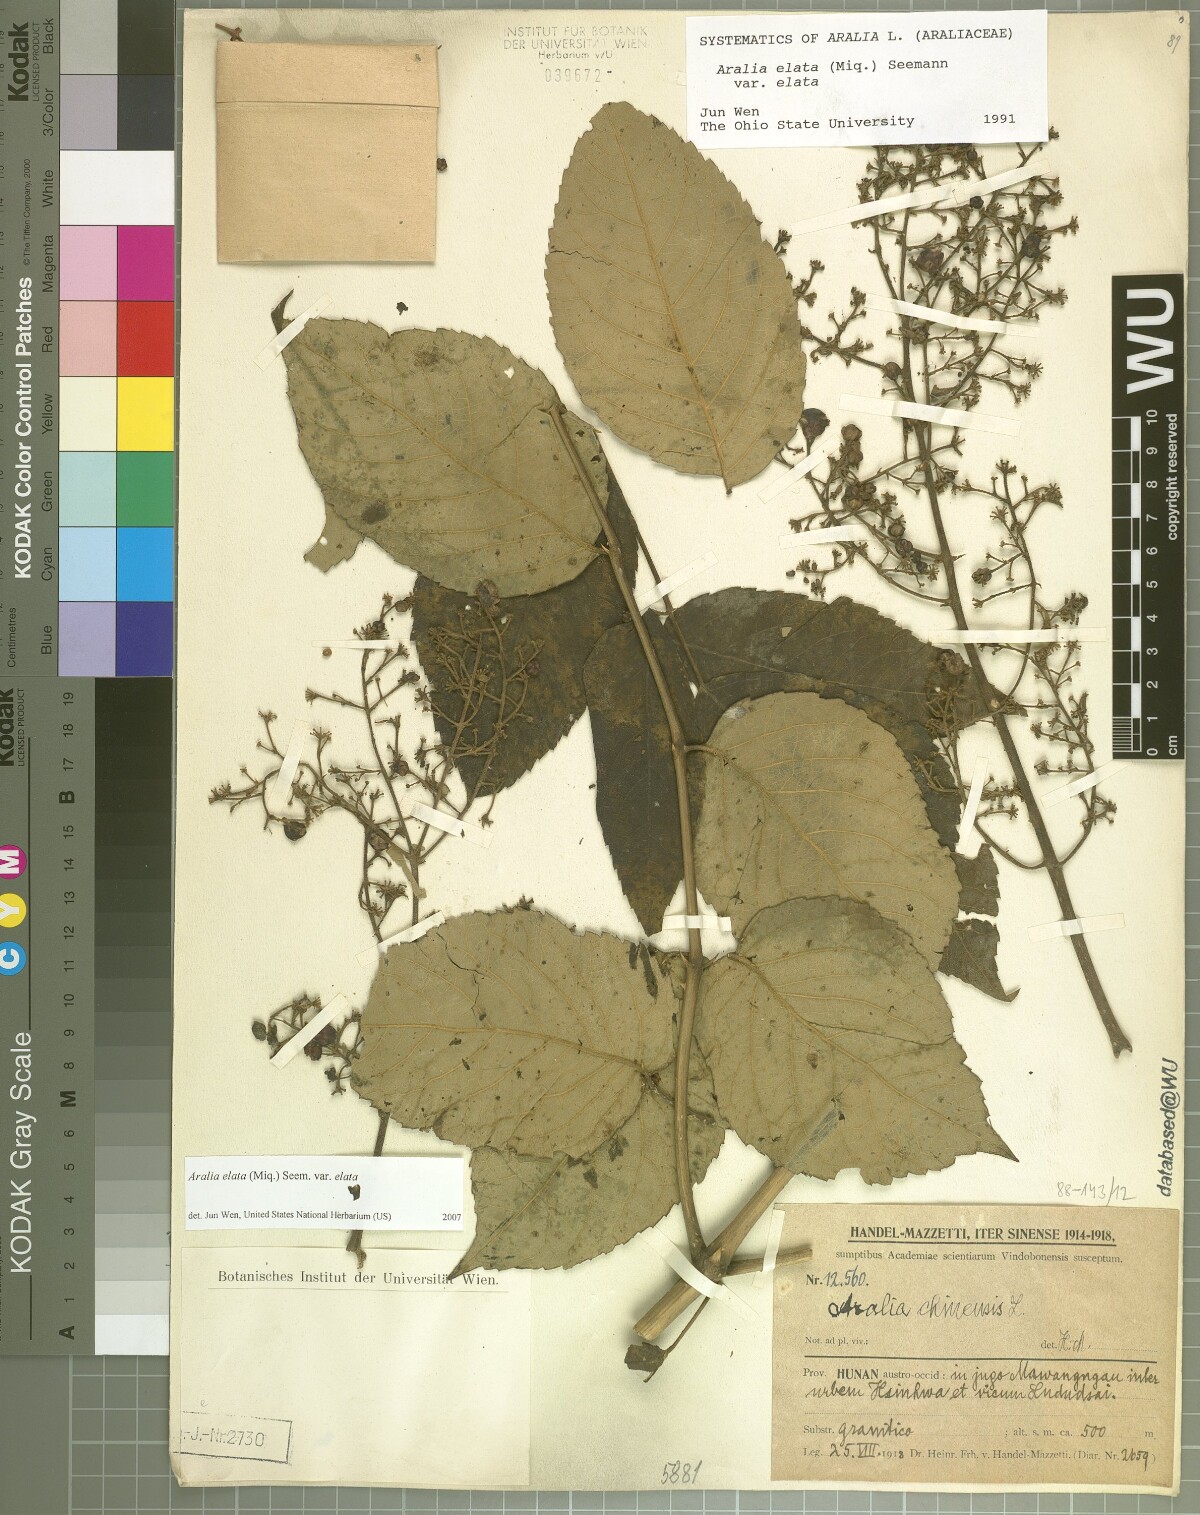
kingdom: Plantae
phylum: Tracheophyta
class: Magnoliopsida
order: Apiales
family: Araliaceae
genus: Aralia
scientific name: Aralia elata
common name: Japanese angelica-tree
